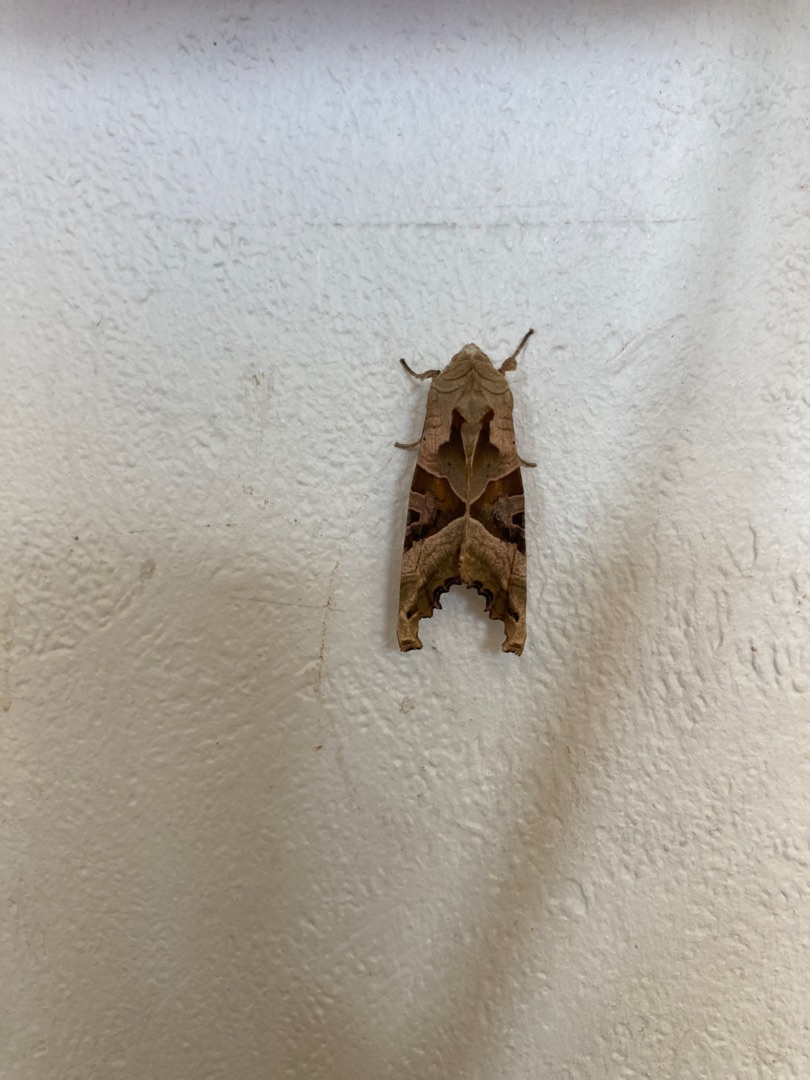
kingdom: Animalia
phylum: Arthropoda
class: Insecta
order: Lepidoptera
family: Noctuidae
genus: Phlogophora
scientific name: Phlogophora meticulosa
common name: Agatugle
